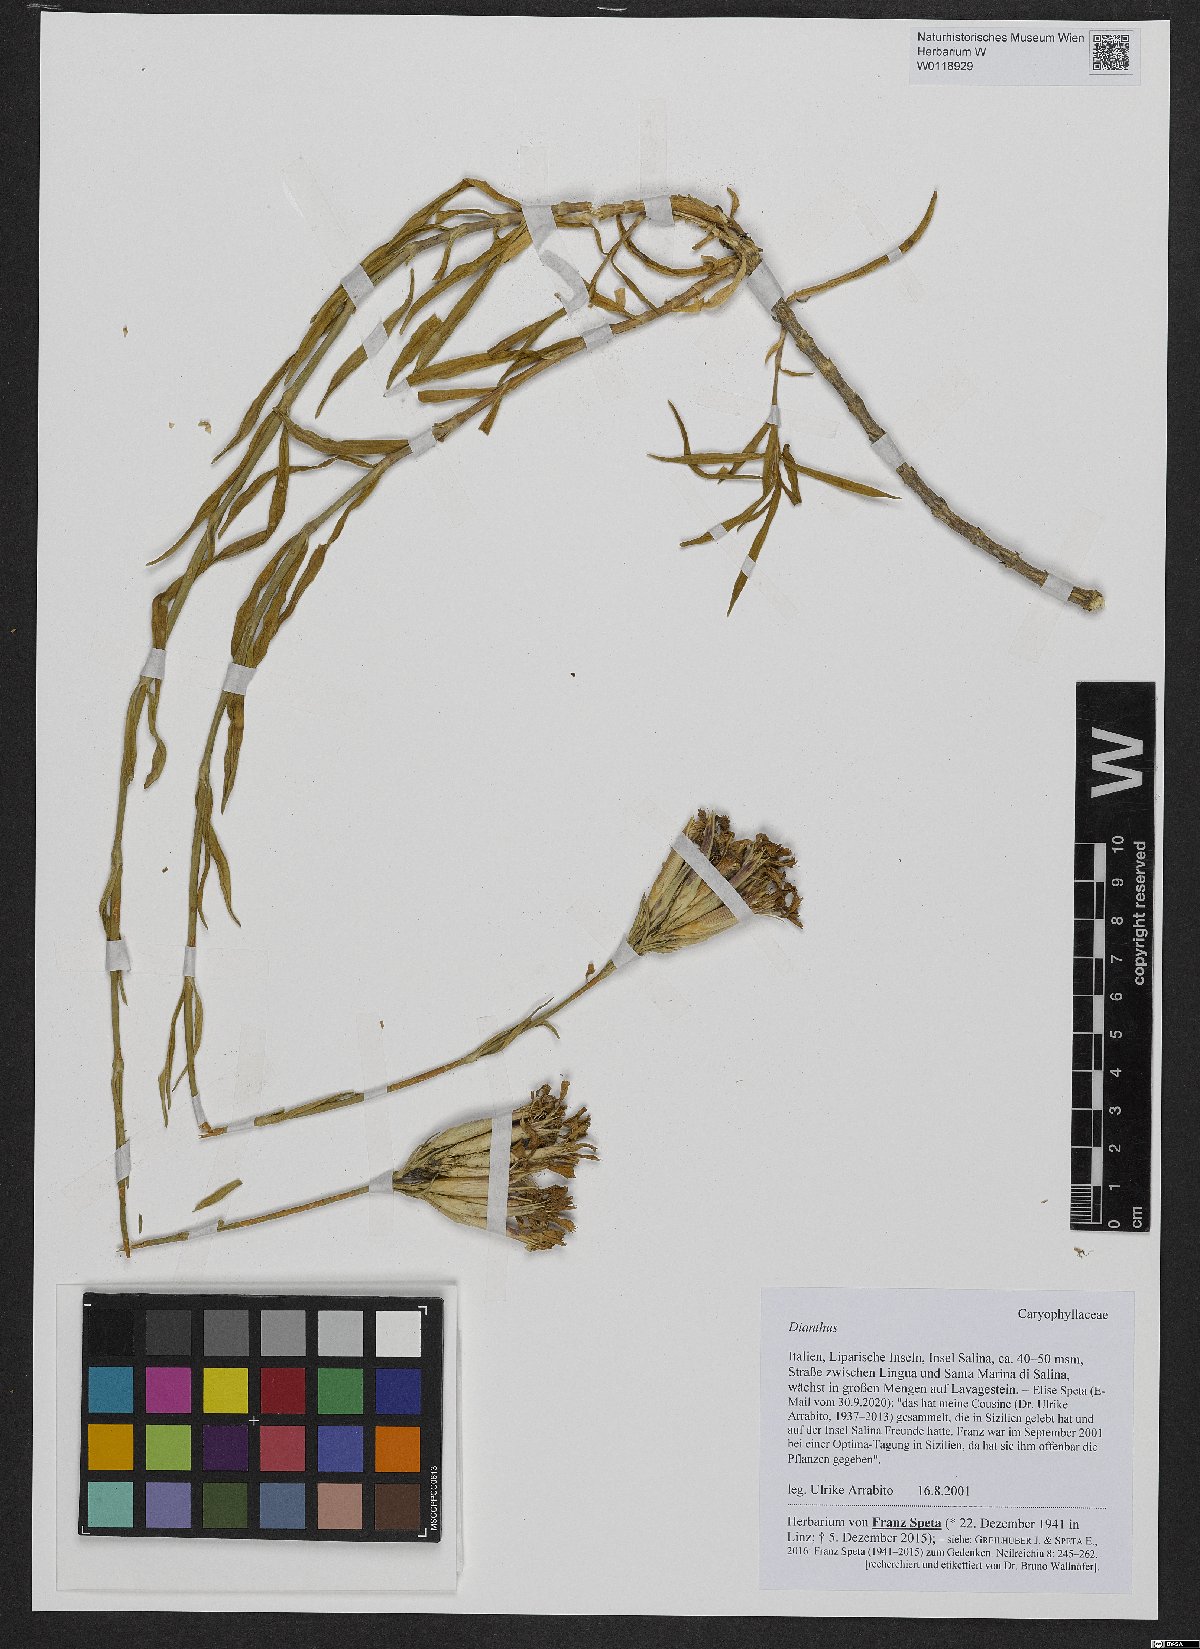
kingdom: Plantae
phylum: Tracheophyta
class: Magnoliopsida
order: Caryophyllales
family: Caryophyllaceae
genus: Dianthus
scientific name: Dianthus
